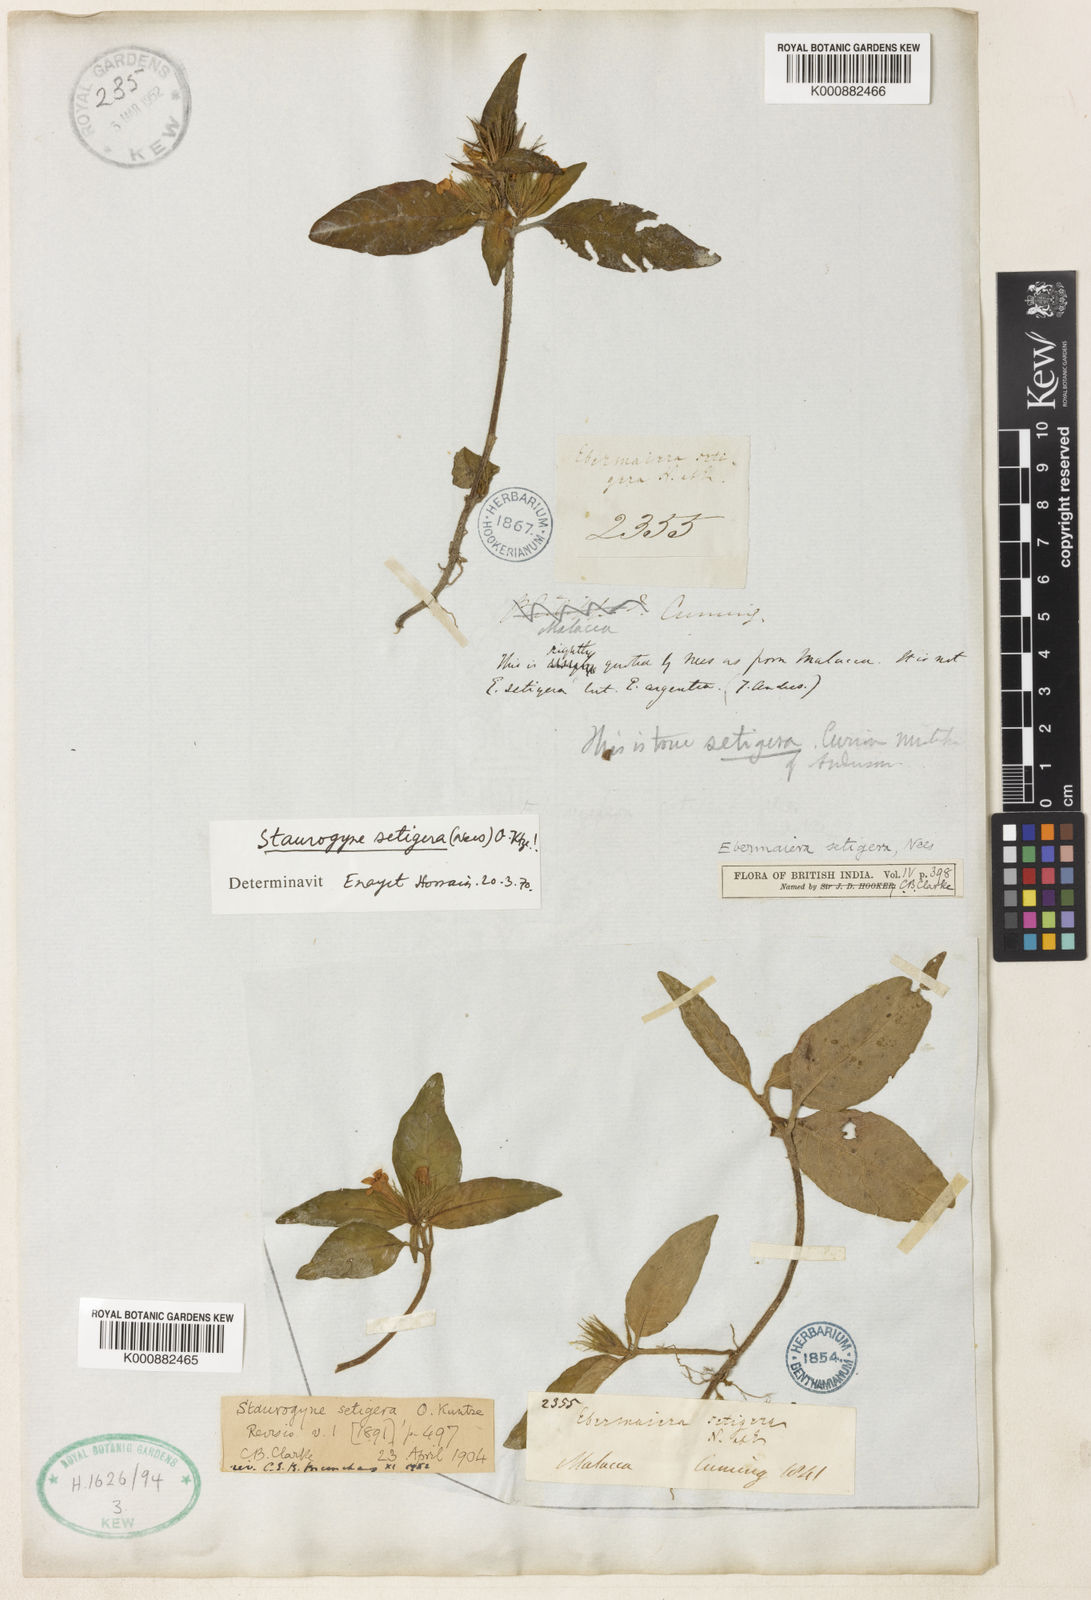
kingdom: Plantae
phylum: Tracheophyta
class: Magnoliopsida
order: Lamiales
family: Acanthaceae
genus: Staurogyne
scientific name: Staurogyne setigera
